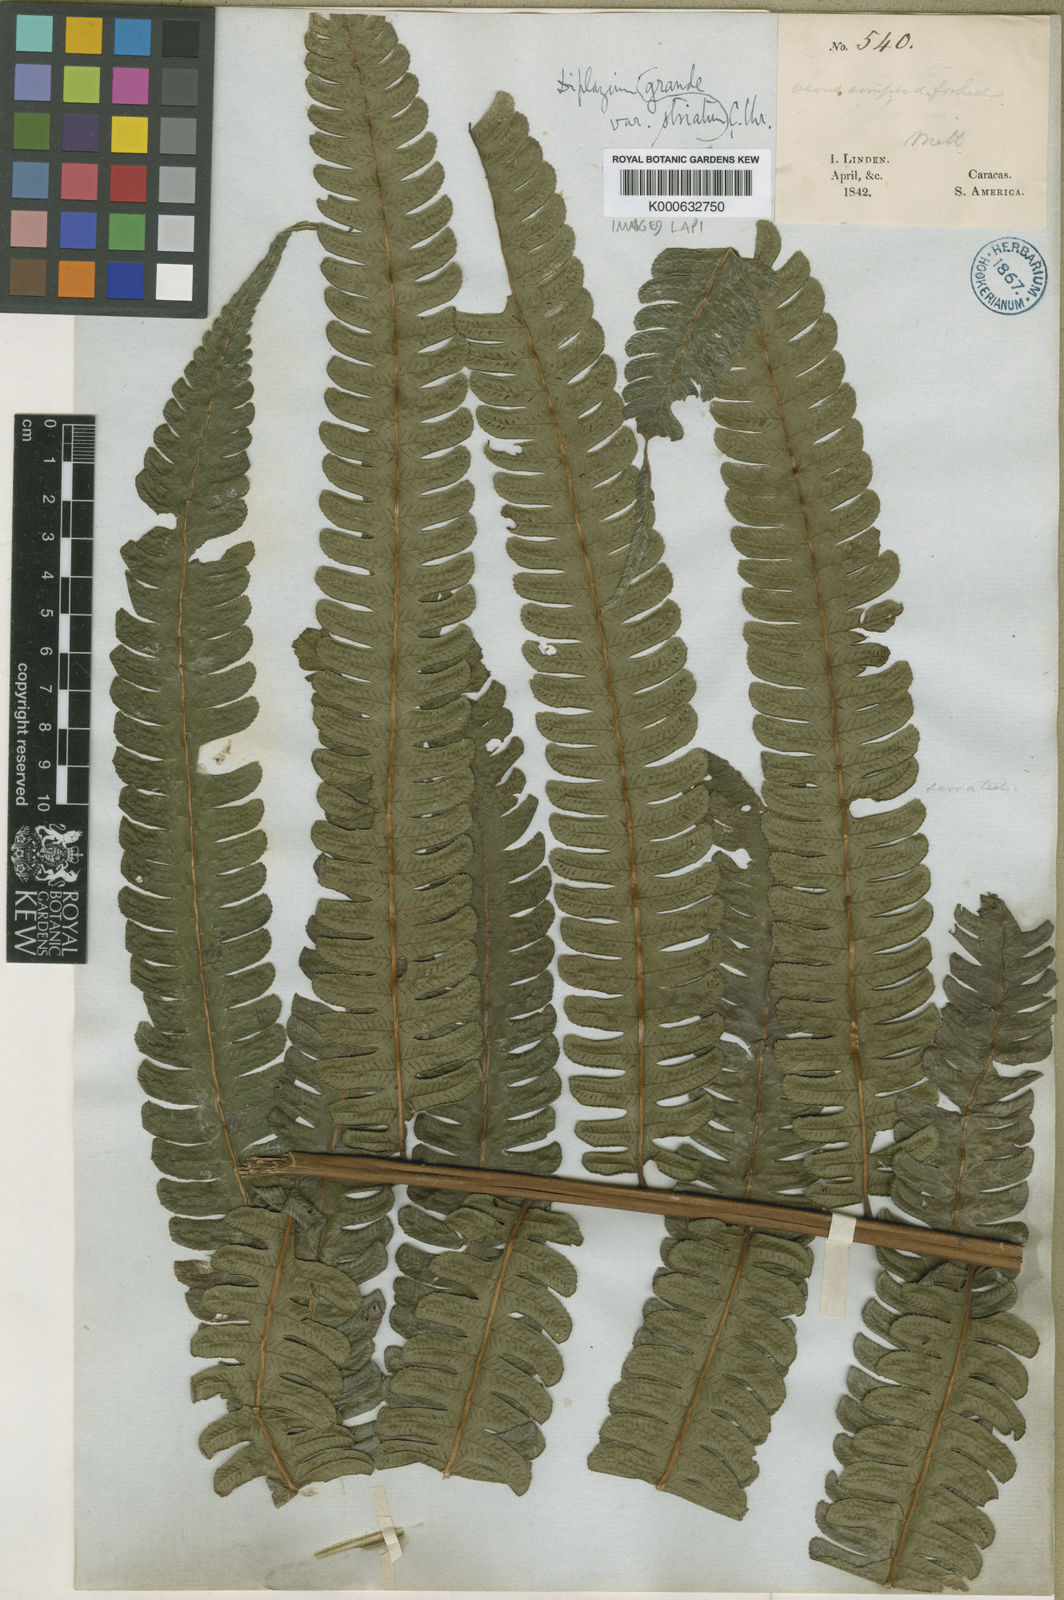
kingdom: Plantae
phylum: Tracheophyta
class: Polypodiopsida
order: Polypodiales
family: Athyriaceae
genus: Diplazium
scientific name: Diplazium lindbergii
